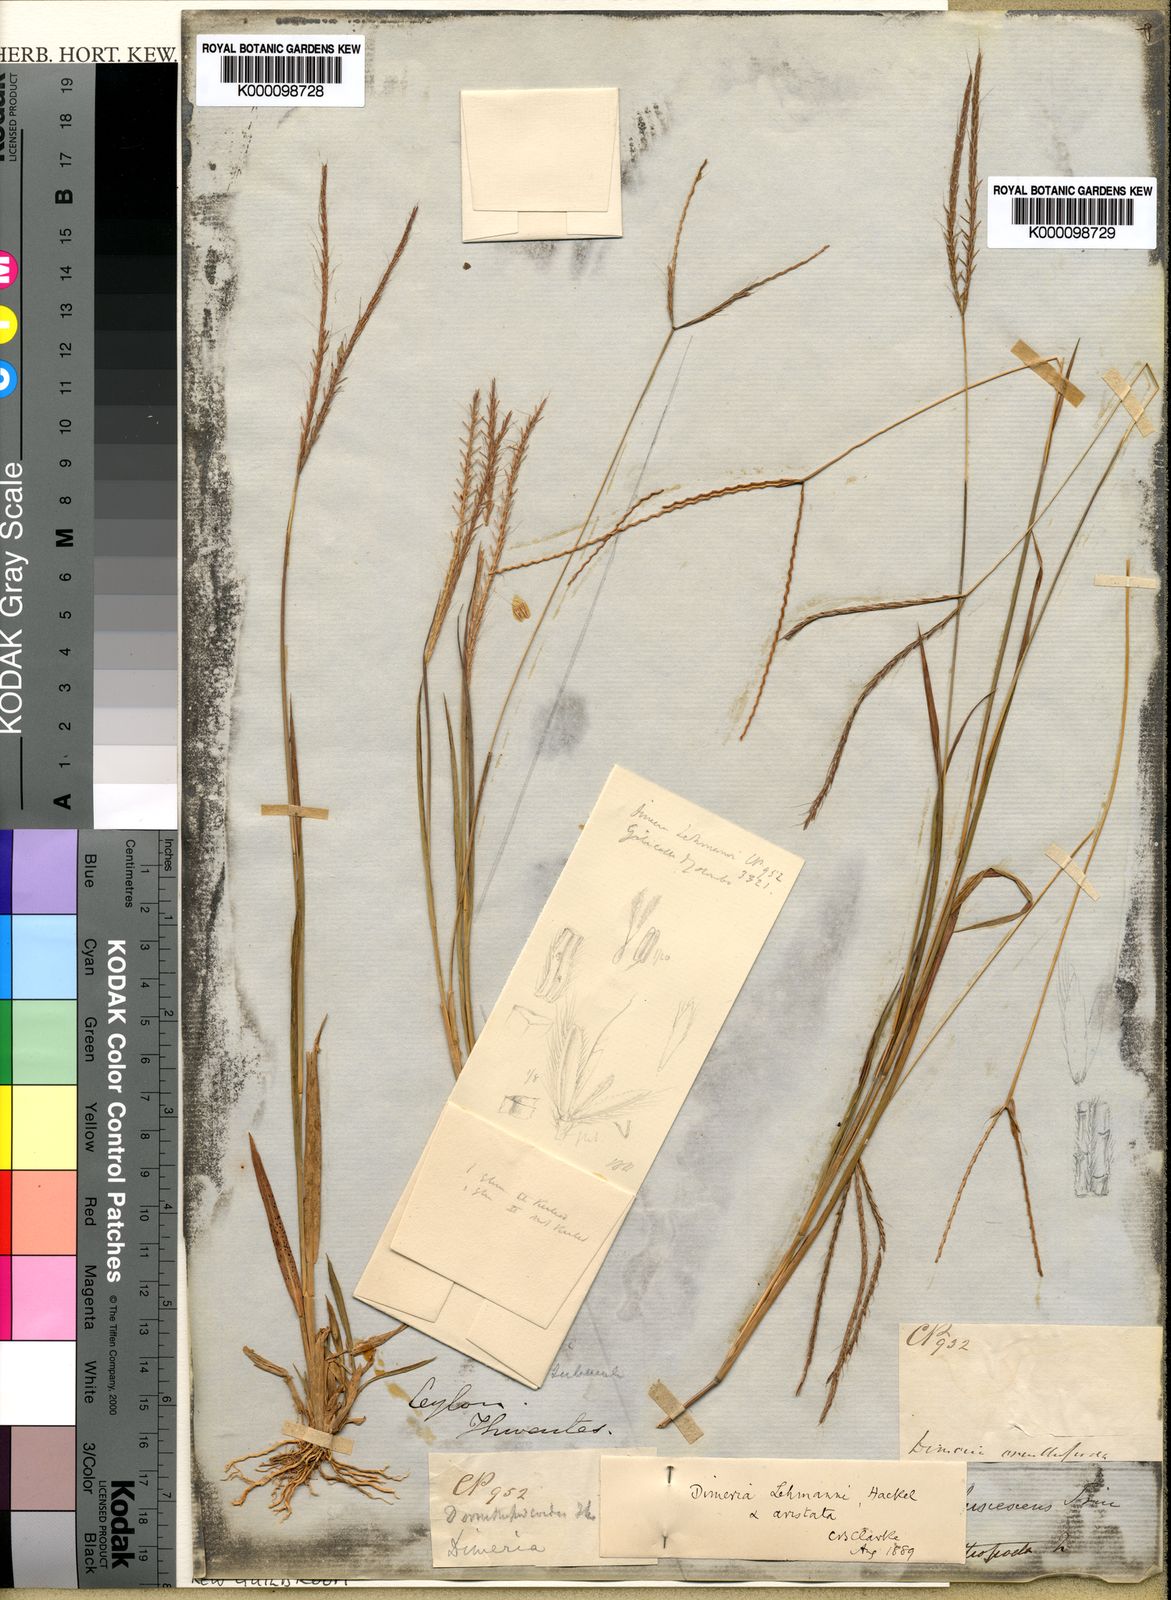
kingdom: Plantae
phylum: Tracheophyta
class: Liliopsida
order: Poales
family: Poaceae
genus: Dimeria
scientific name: Dimeria aristata
